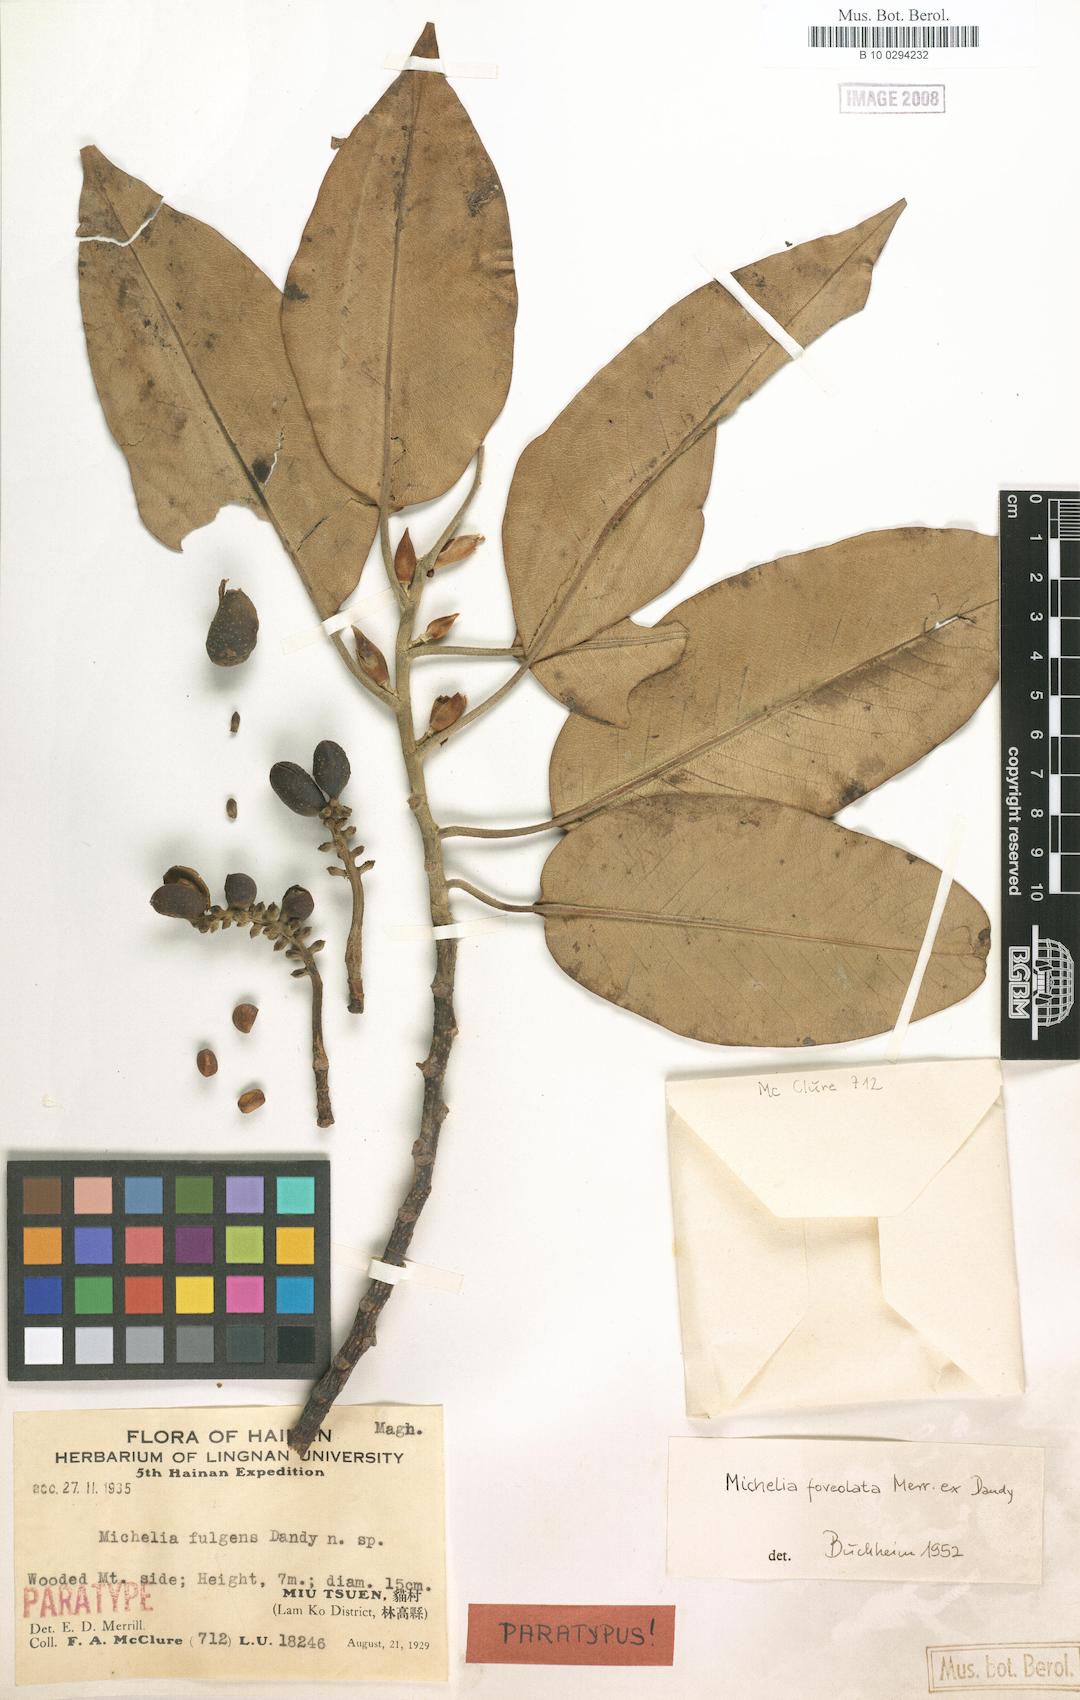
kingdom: Plantae
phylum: Tracheophyta
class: Magnoliopsida
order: Magnoliales
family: Magnoliaceae
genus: Magnolia
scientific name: Magnolia foveolata
